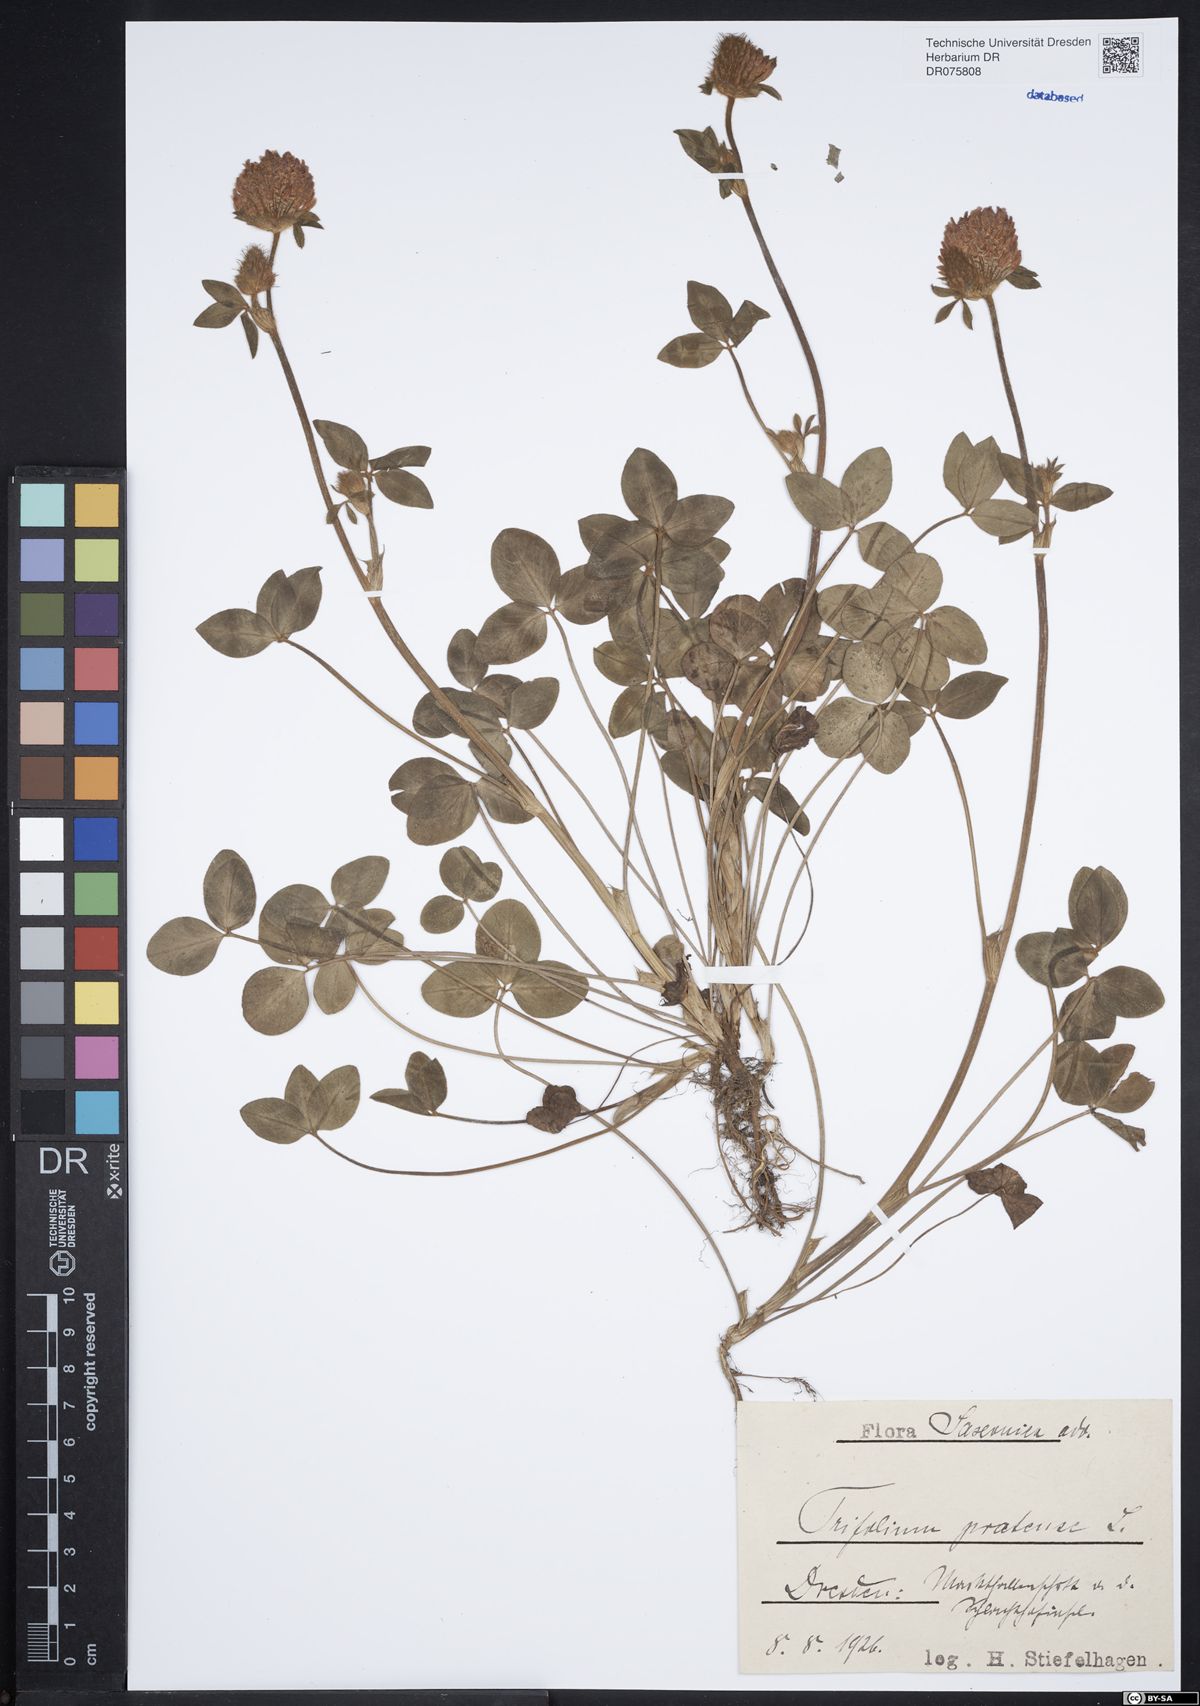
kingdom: Plantae
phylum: Tracheophyta
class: Magnoliopsida
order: Fabales
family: Fabaceae
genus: Trifolium
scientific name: Trifolium pratense
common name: Red clover
